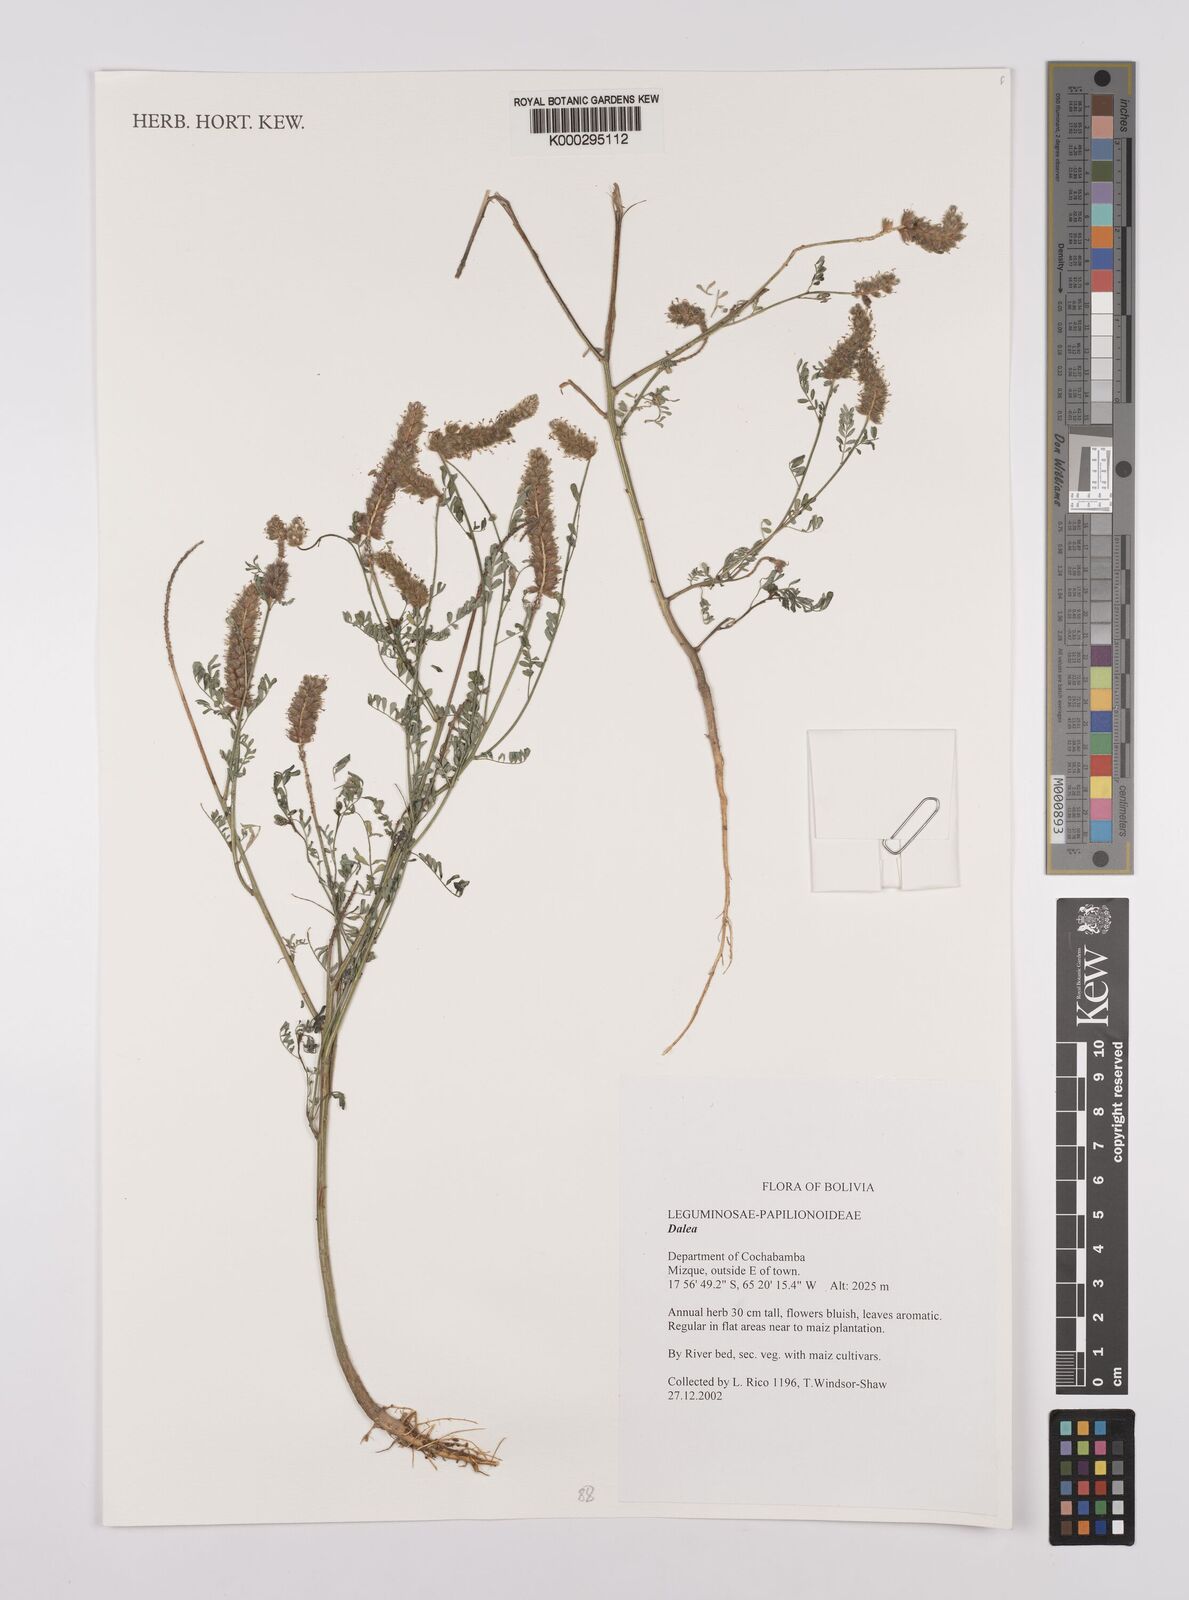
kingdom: Plantae
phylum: Tracheophyta
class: Magnoliopsida
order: Fabales
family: Fabaceae
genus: Dalea
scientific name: Dalea
